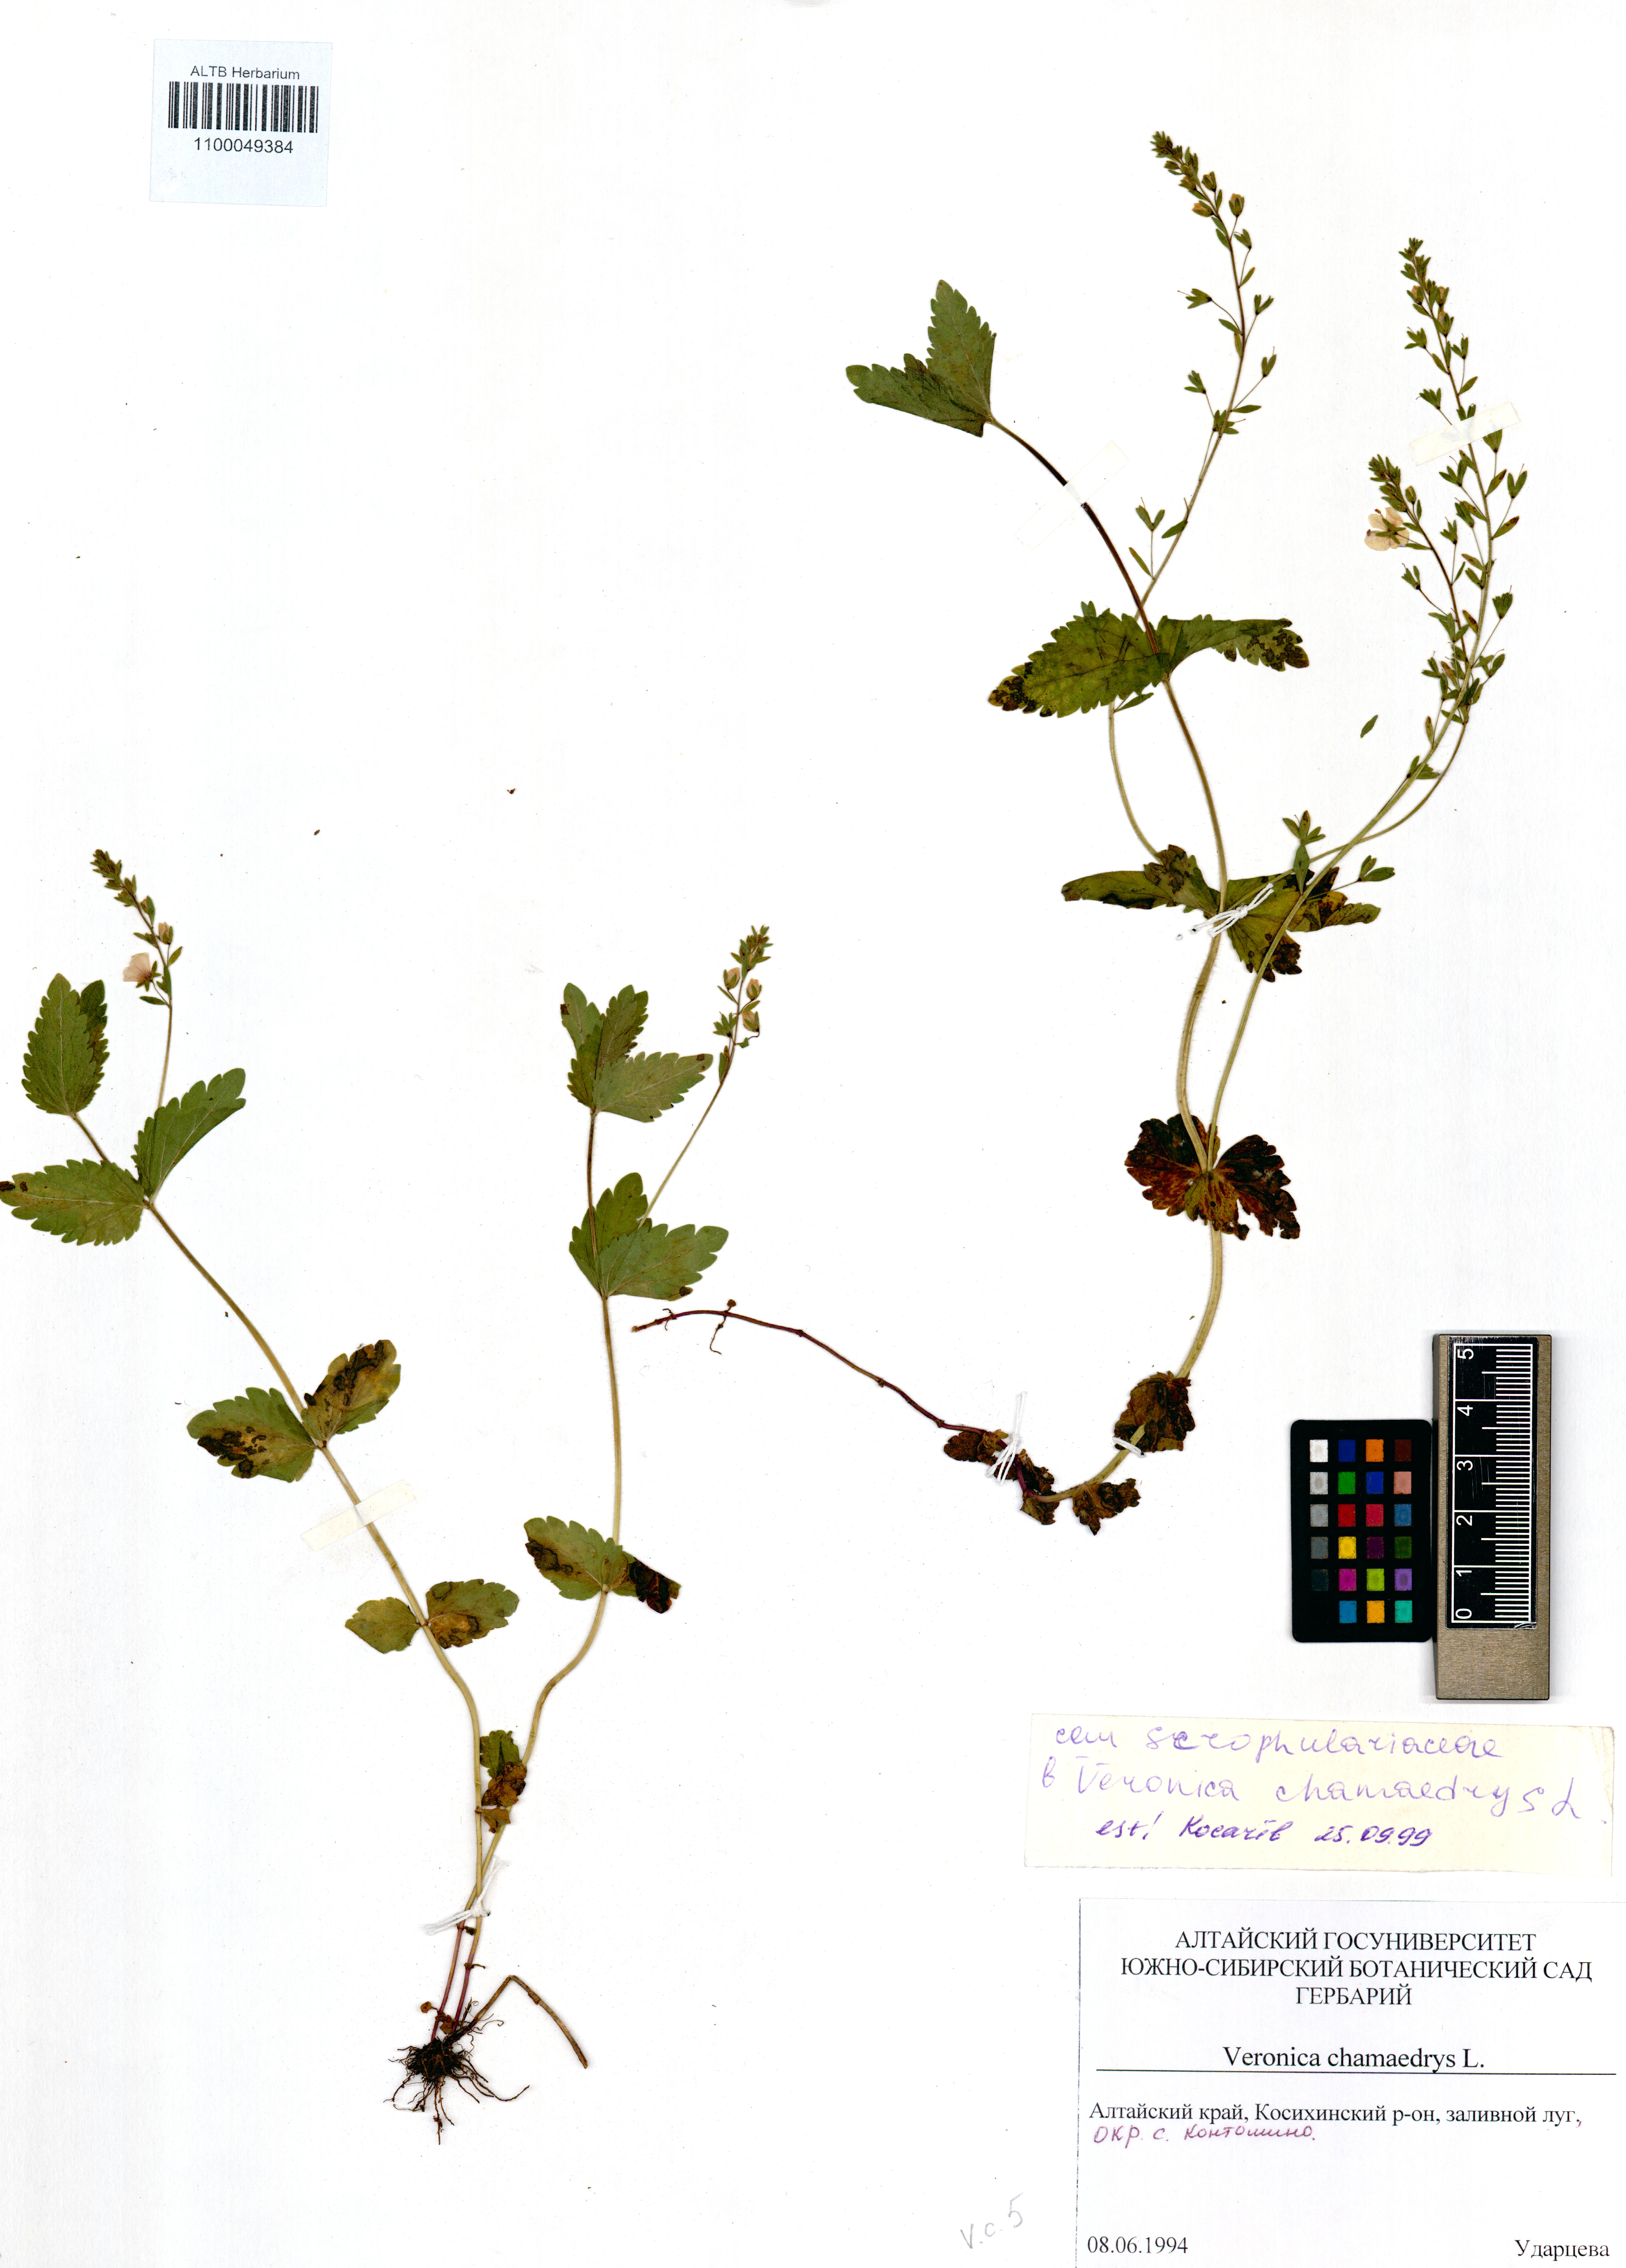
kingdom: Plantae
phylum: Tracheophyta
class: Magnoliopsida
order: Lamiales
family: Plantaginaceae
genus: Veronica
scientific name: Veronica chamaedrys
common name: Germander speedwell
